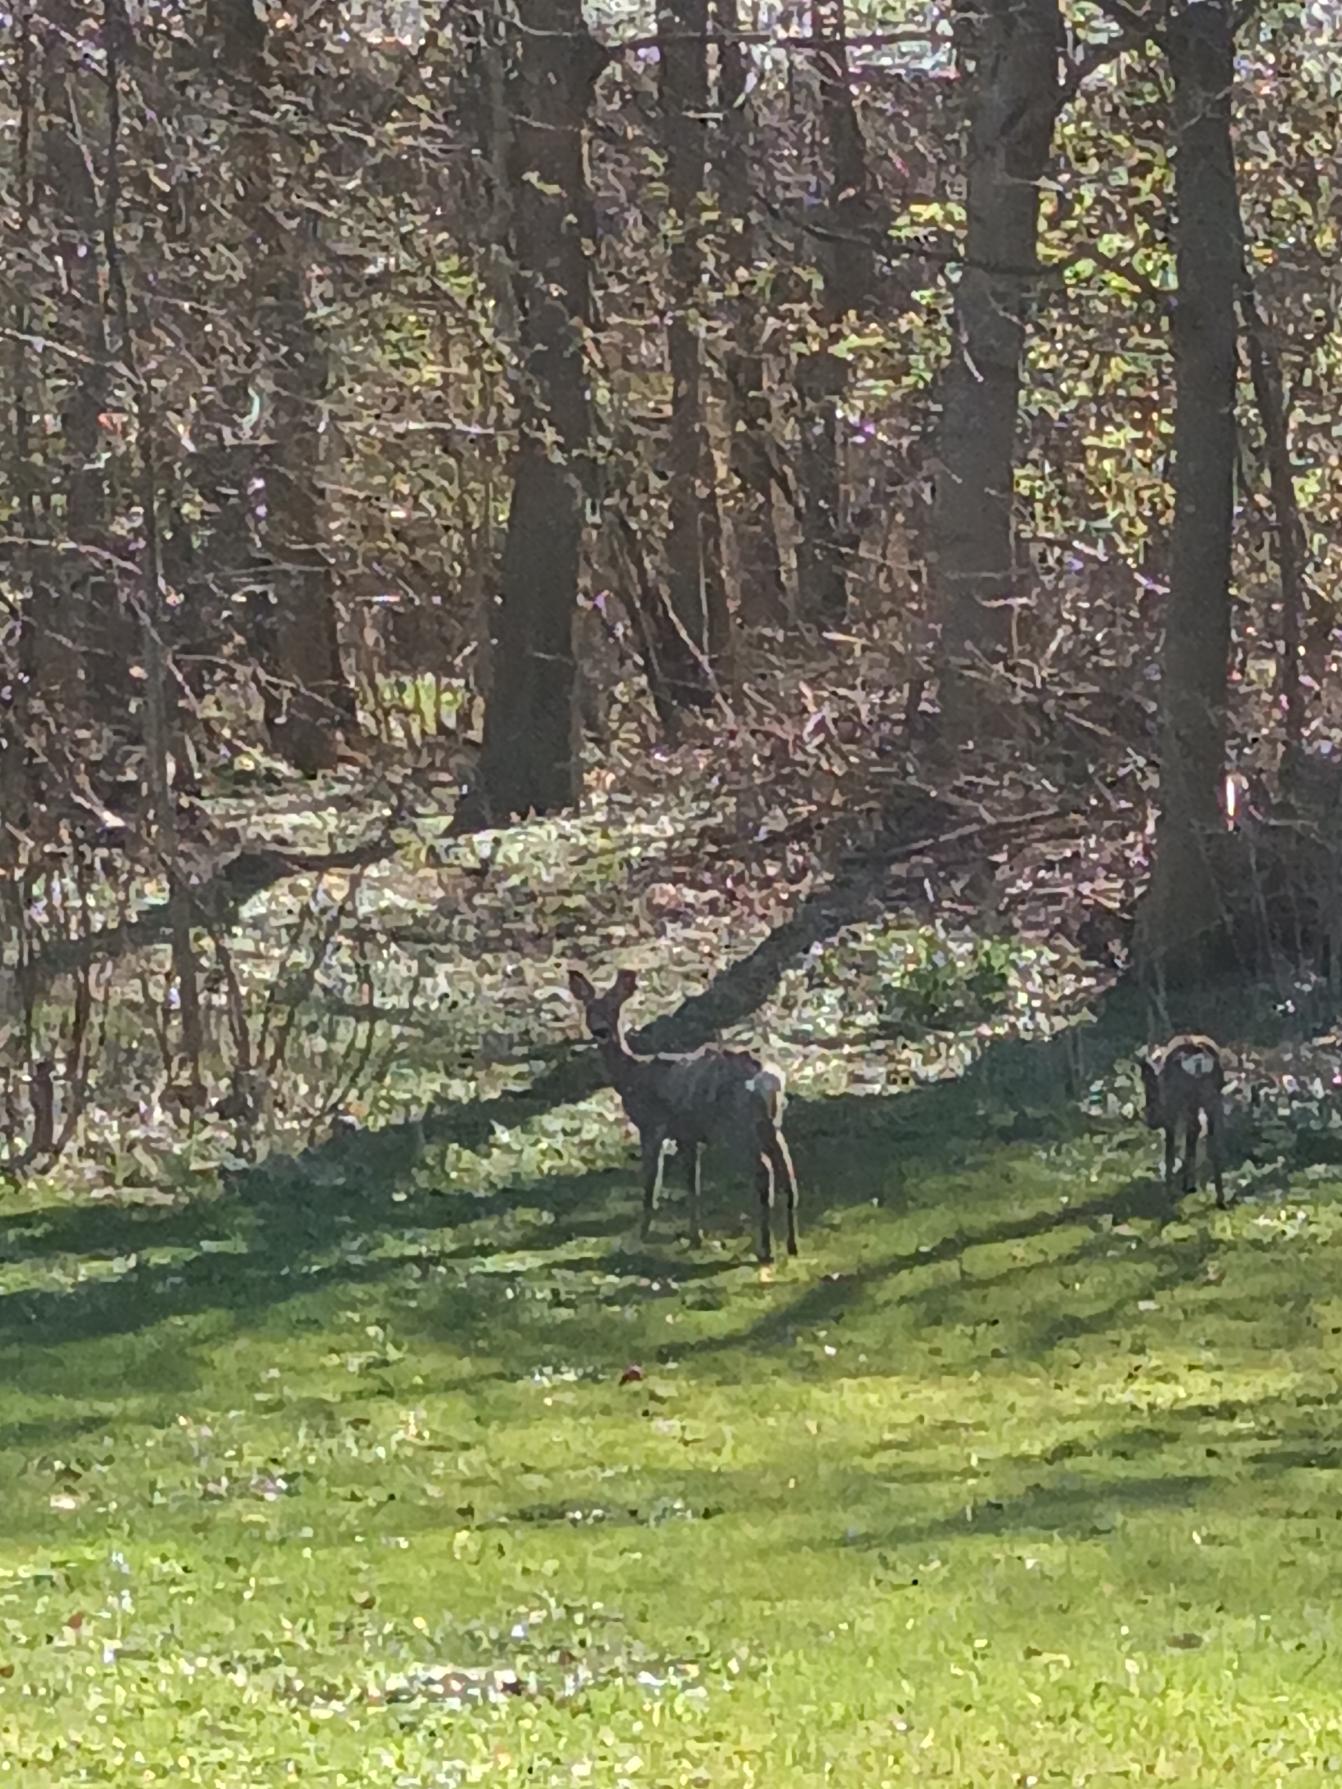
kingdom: Animalia
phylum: Chordata
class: Mammalia
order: Artiodactyla
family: Cervidae
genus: Capreolus
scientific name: Capreolus capreolus
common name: Rådyr
